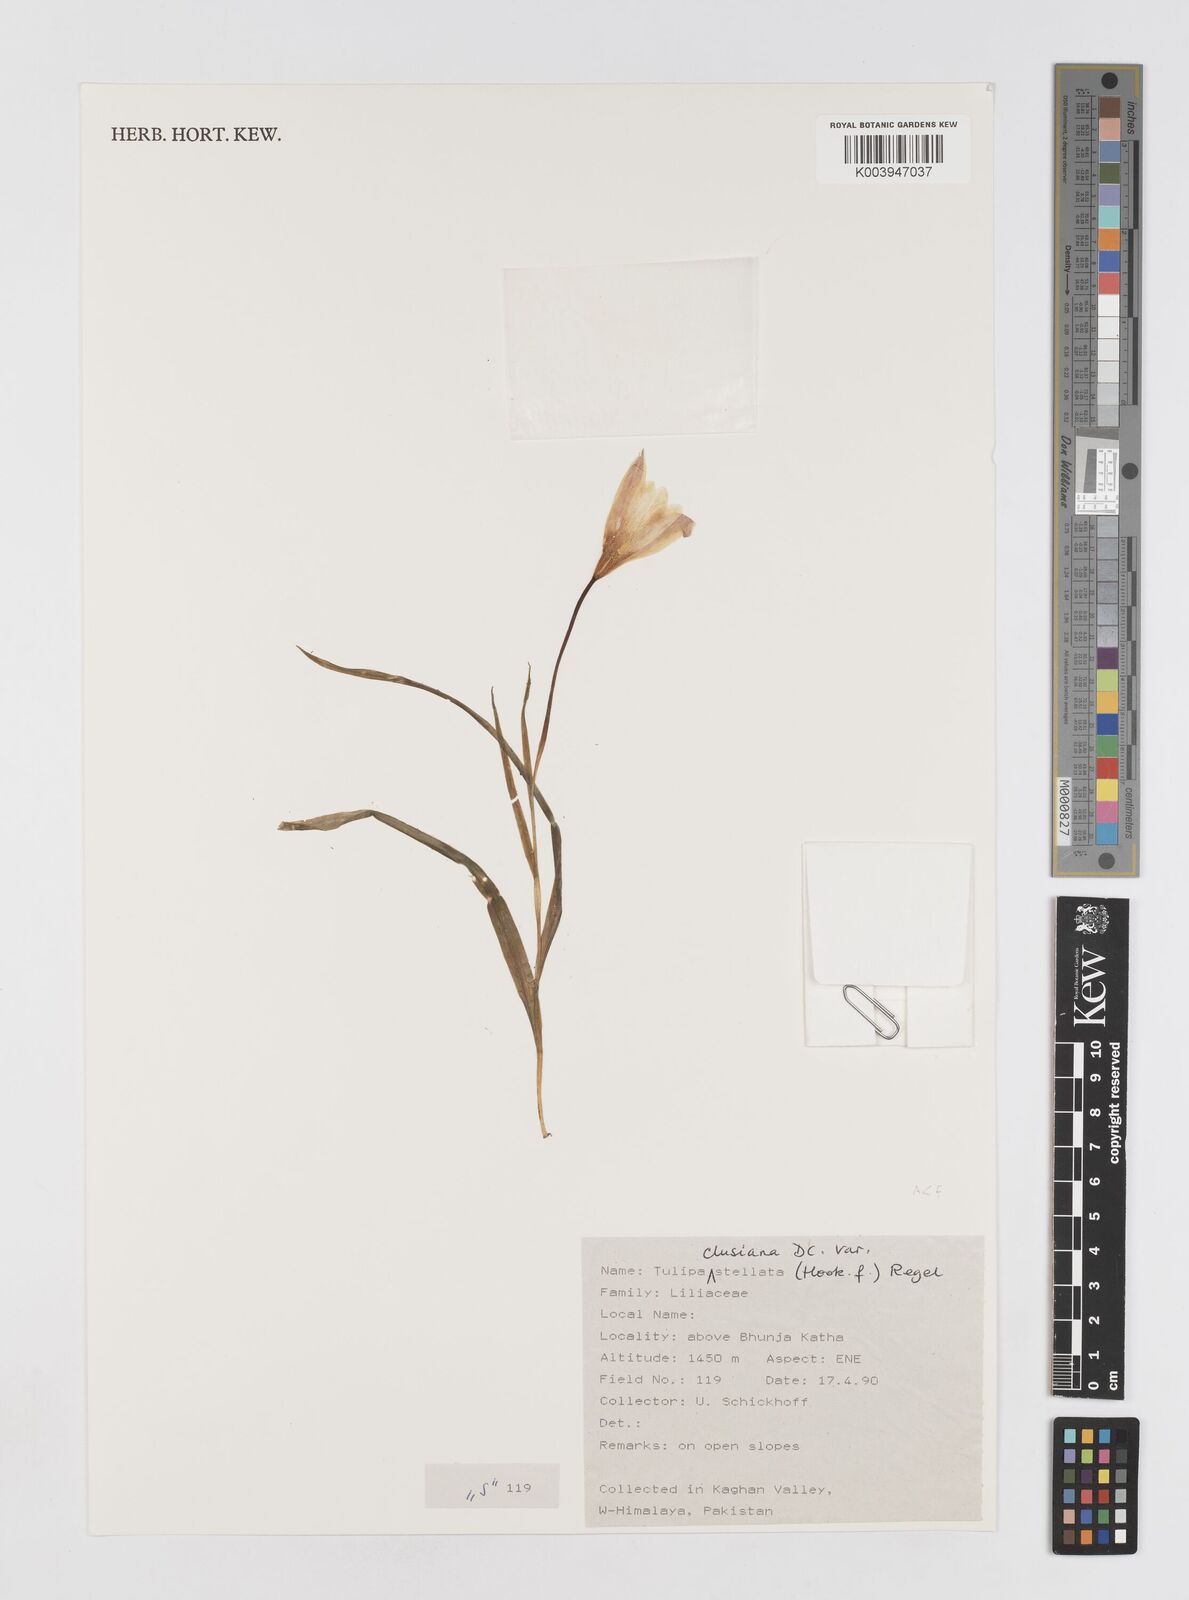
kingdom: Plantae
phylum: Tracheophyta
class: Liliopsida
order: Liliales
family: Liliaceae
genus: Tulipa
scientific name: Tulipa clusiana
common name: Lady tulip
